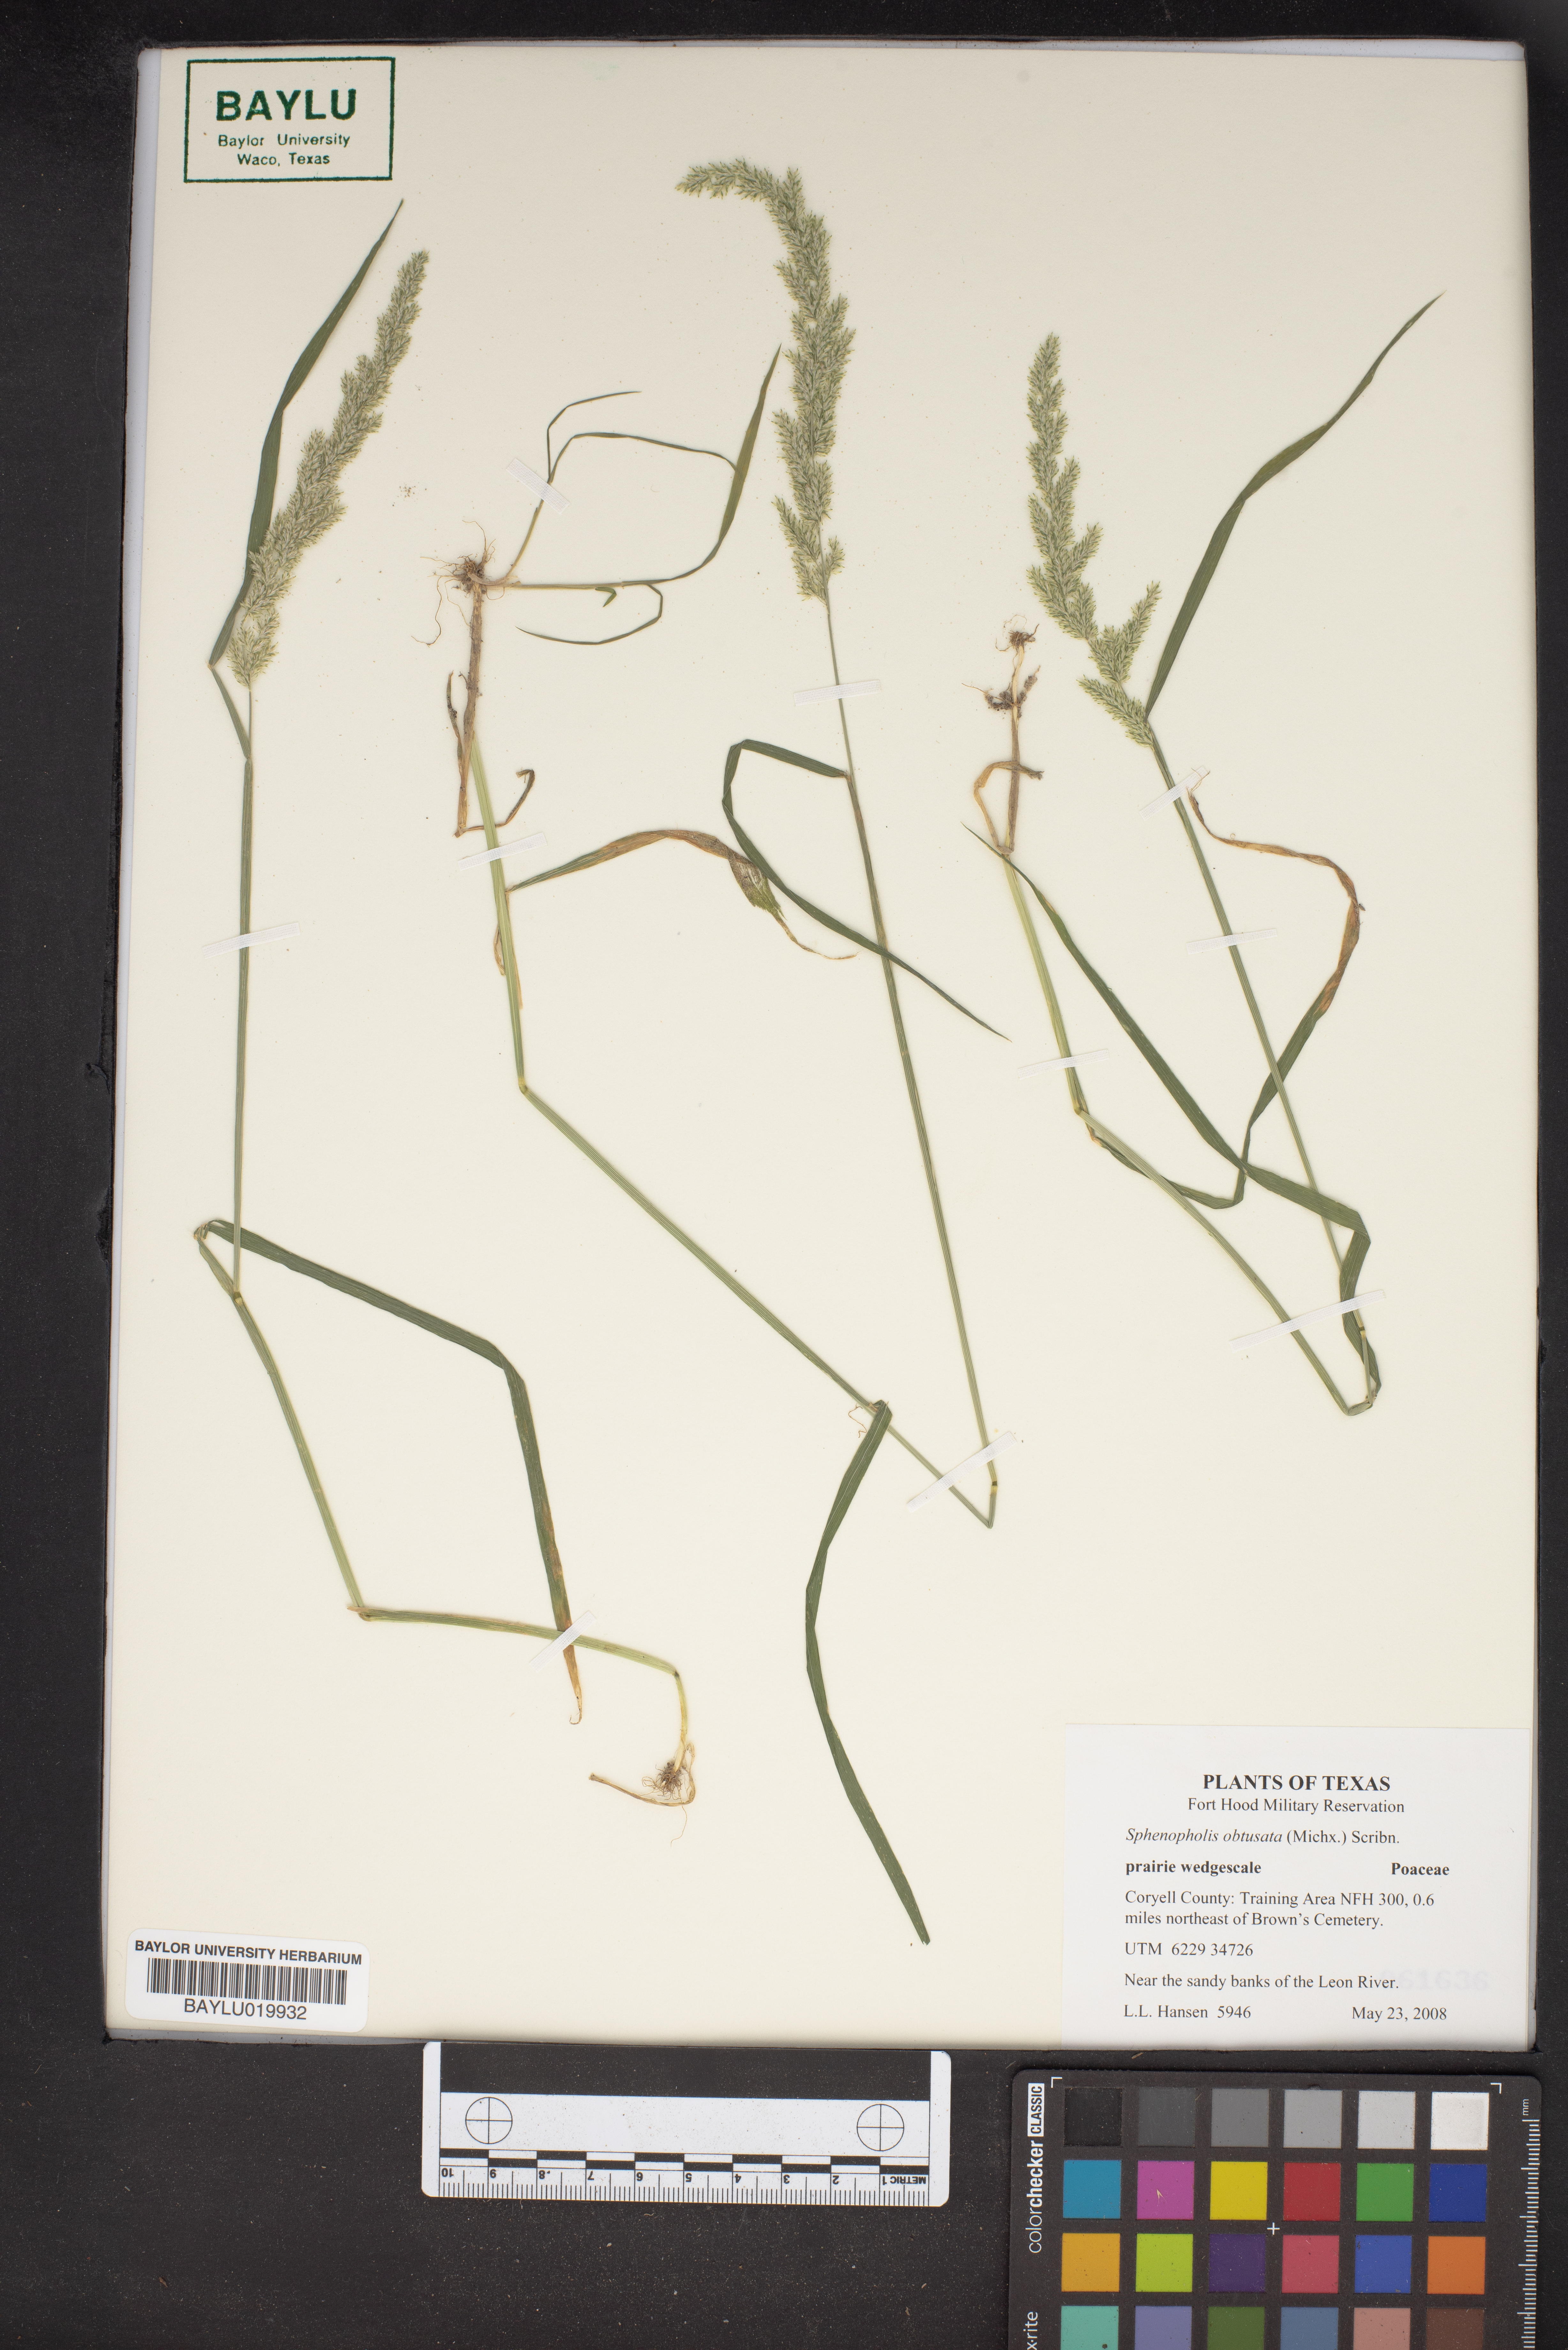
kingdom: Plantae
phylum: Tracheophyta
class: Liliopsida
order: Poales
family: Poaceae
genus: Sphenopholis
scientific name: Sphenopholis obtusata
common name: Prairie grass
